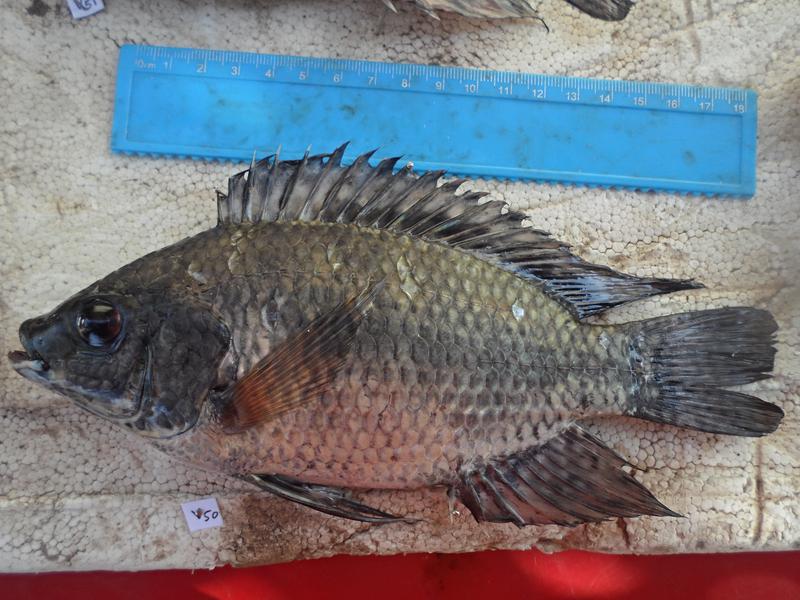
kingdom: Animalia
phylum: Chordata
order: Perciformes
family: Cichlidae
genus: Oreochromis
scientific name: Oreochromis leucostictus
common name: Blue spotted tilapia
